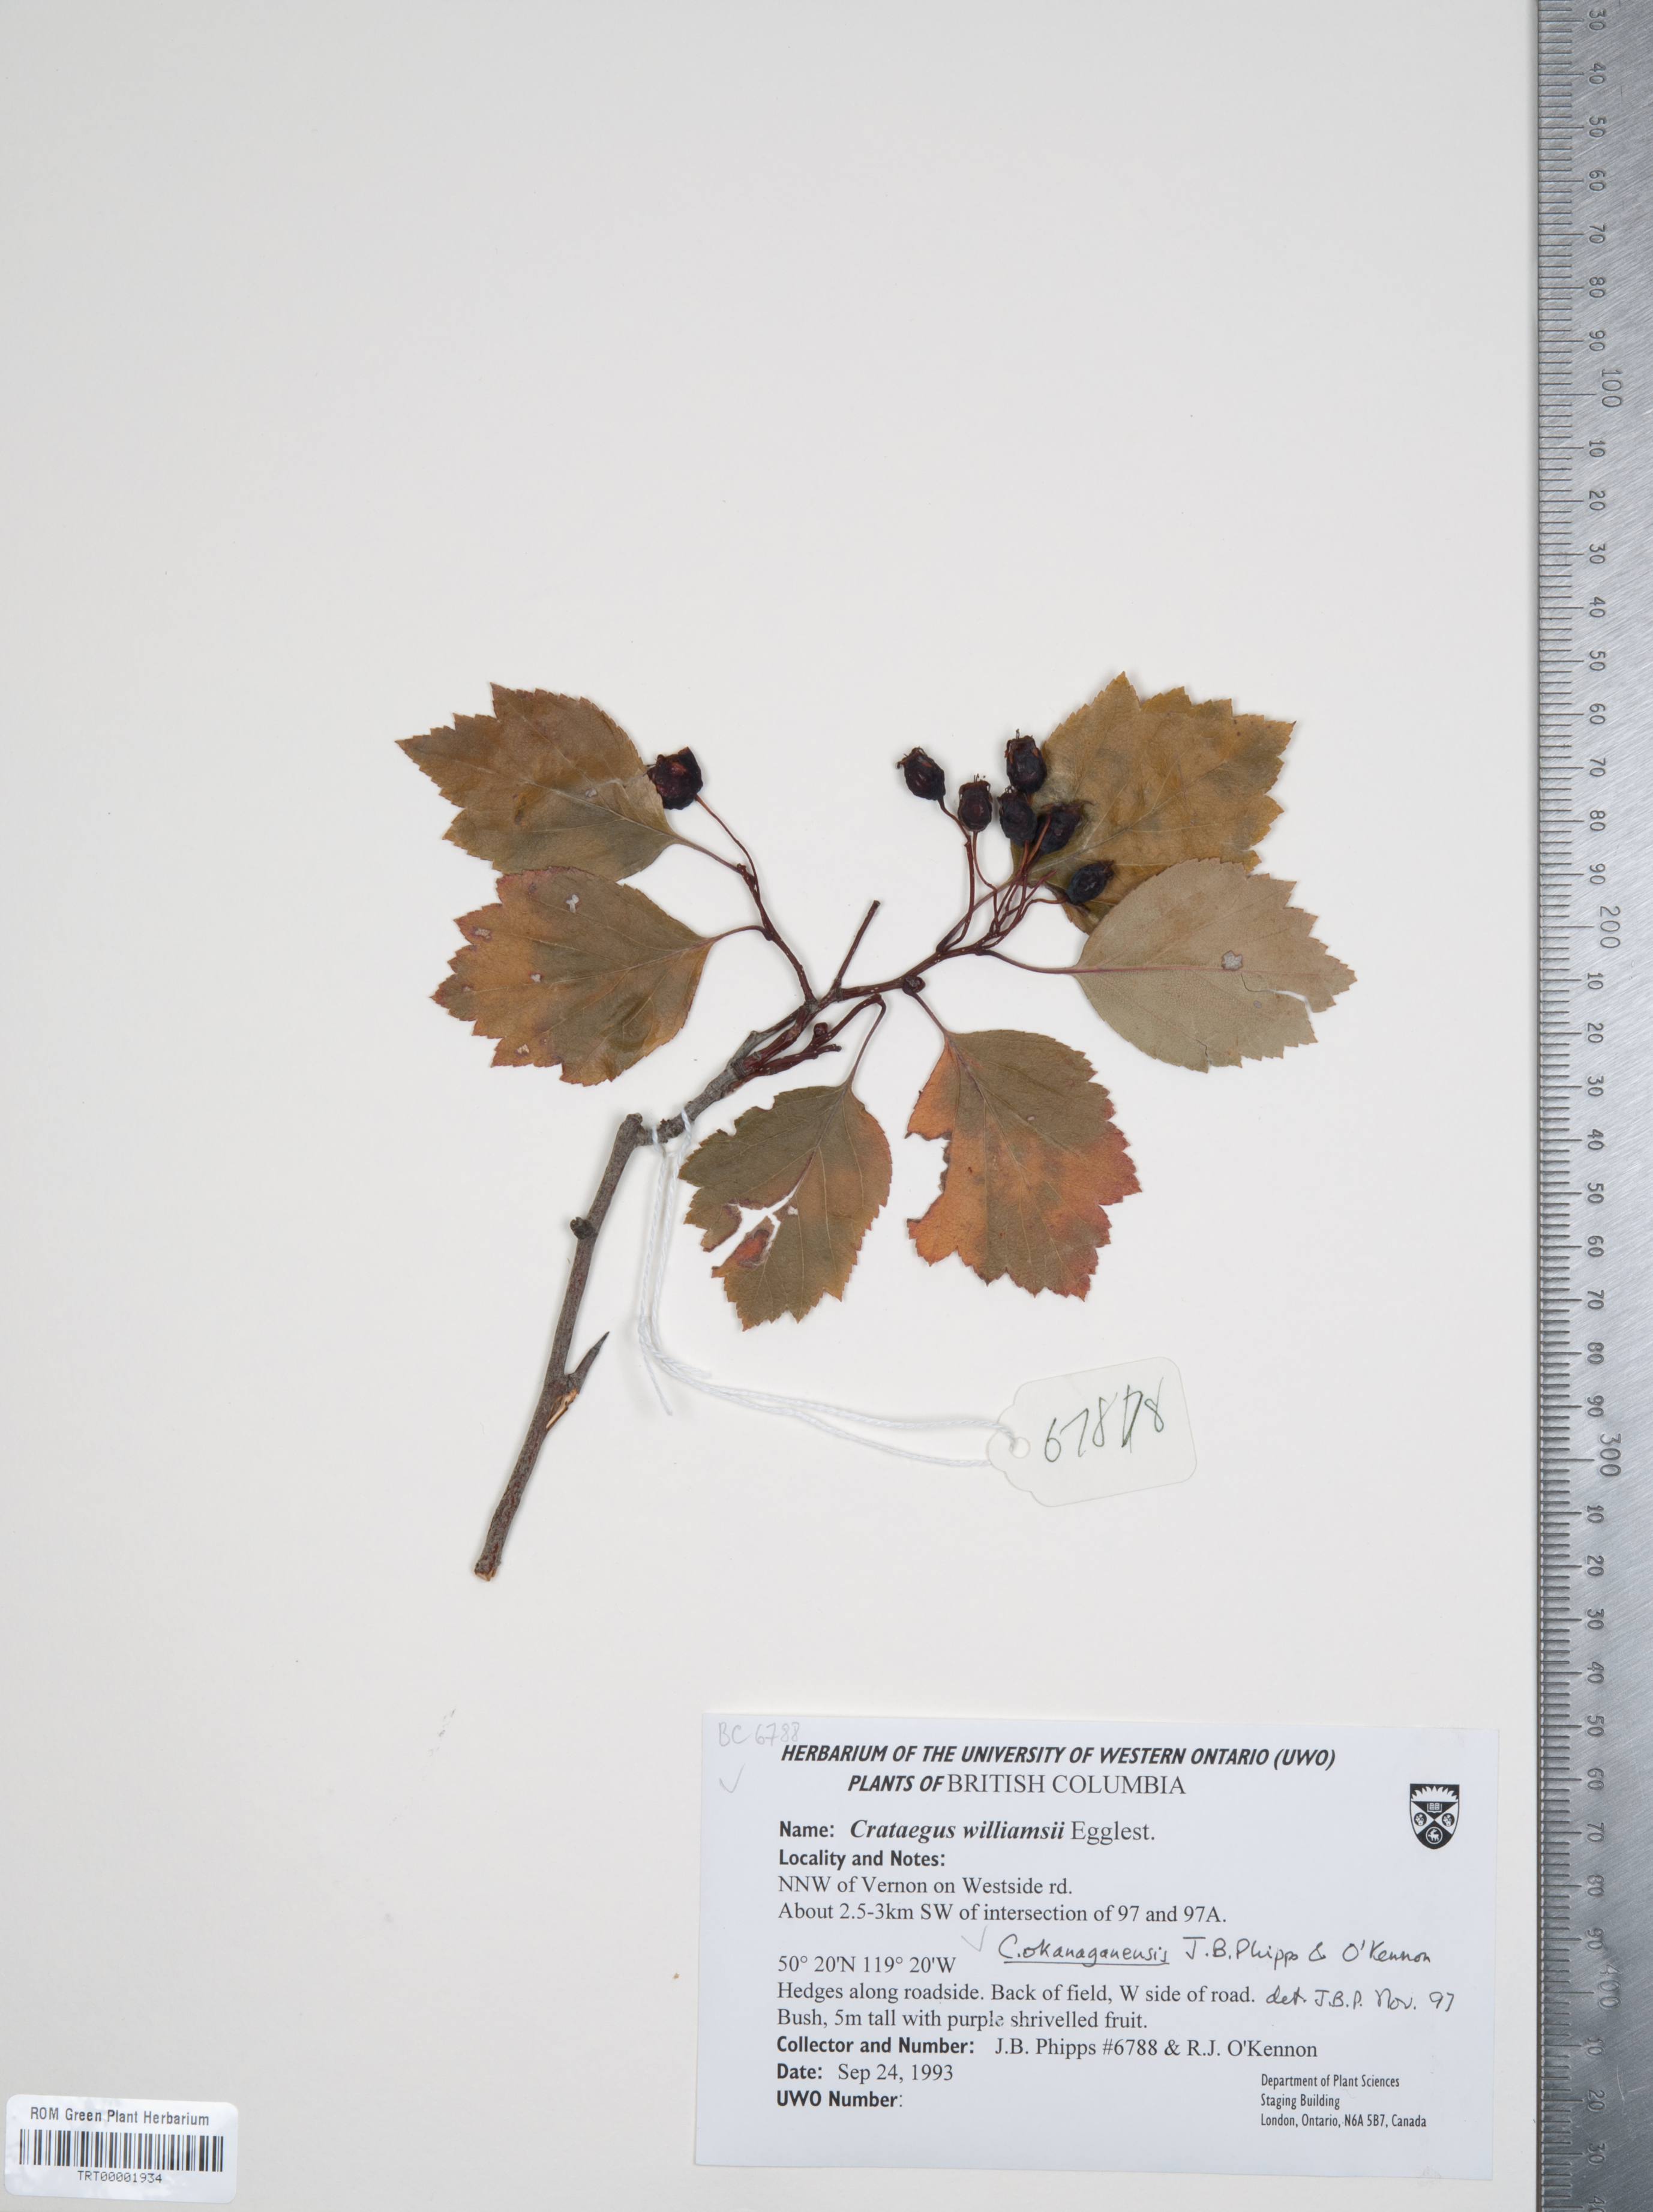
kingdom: Plantae
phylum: Tracheophyta
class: Magnoliopsida
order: Rosales
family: Rosaceae
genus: Crataegus
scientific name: Crataegus okanaganensis
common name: Okanagan valley hawthorn
